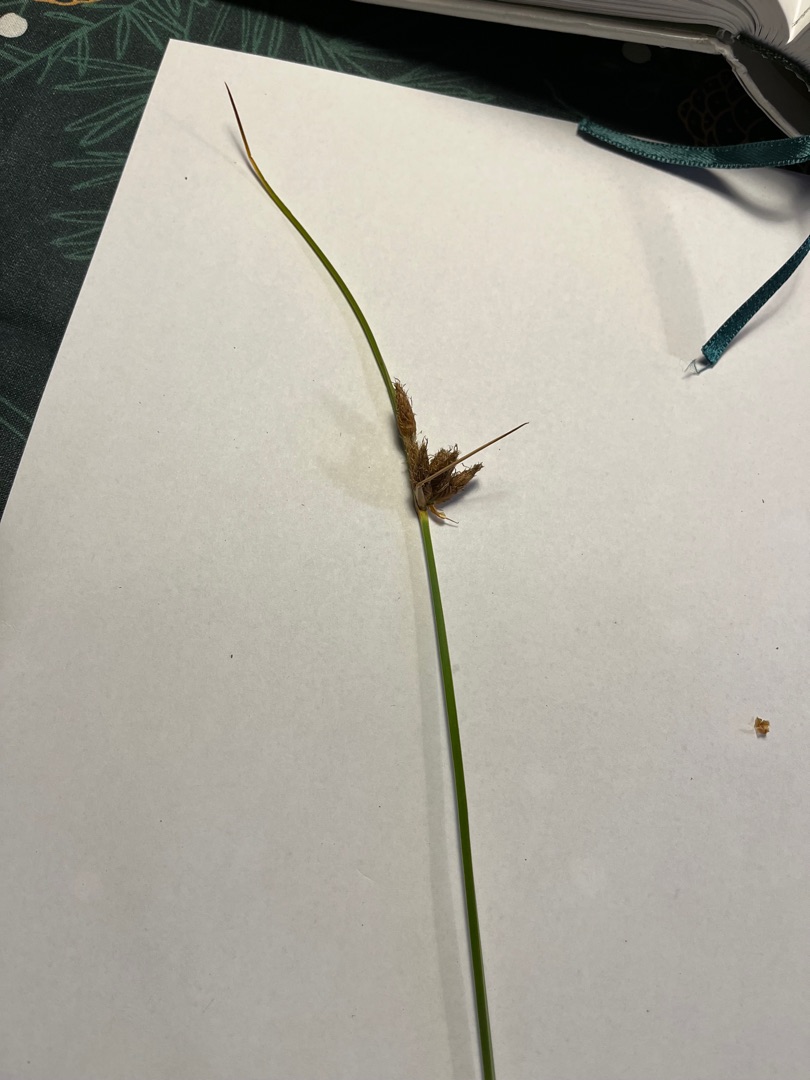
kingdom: Plantae
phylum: Tracheophyta
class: Liliopsida
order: Poales
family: Cyperaceae
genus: Bolboschoenus
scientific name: Bolboschoenus maritimus
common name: Strand-kogleaks
